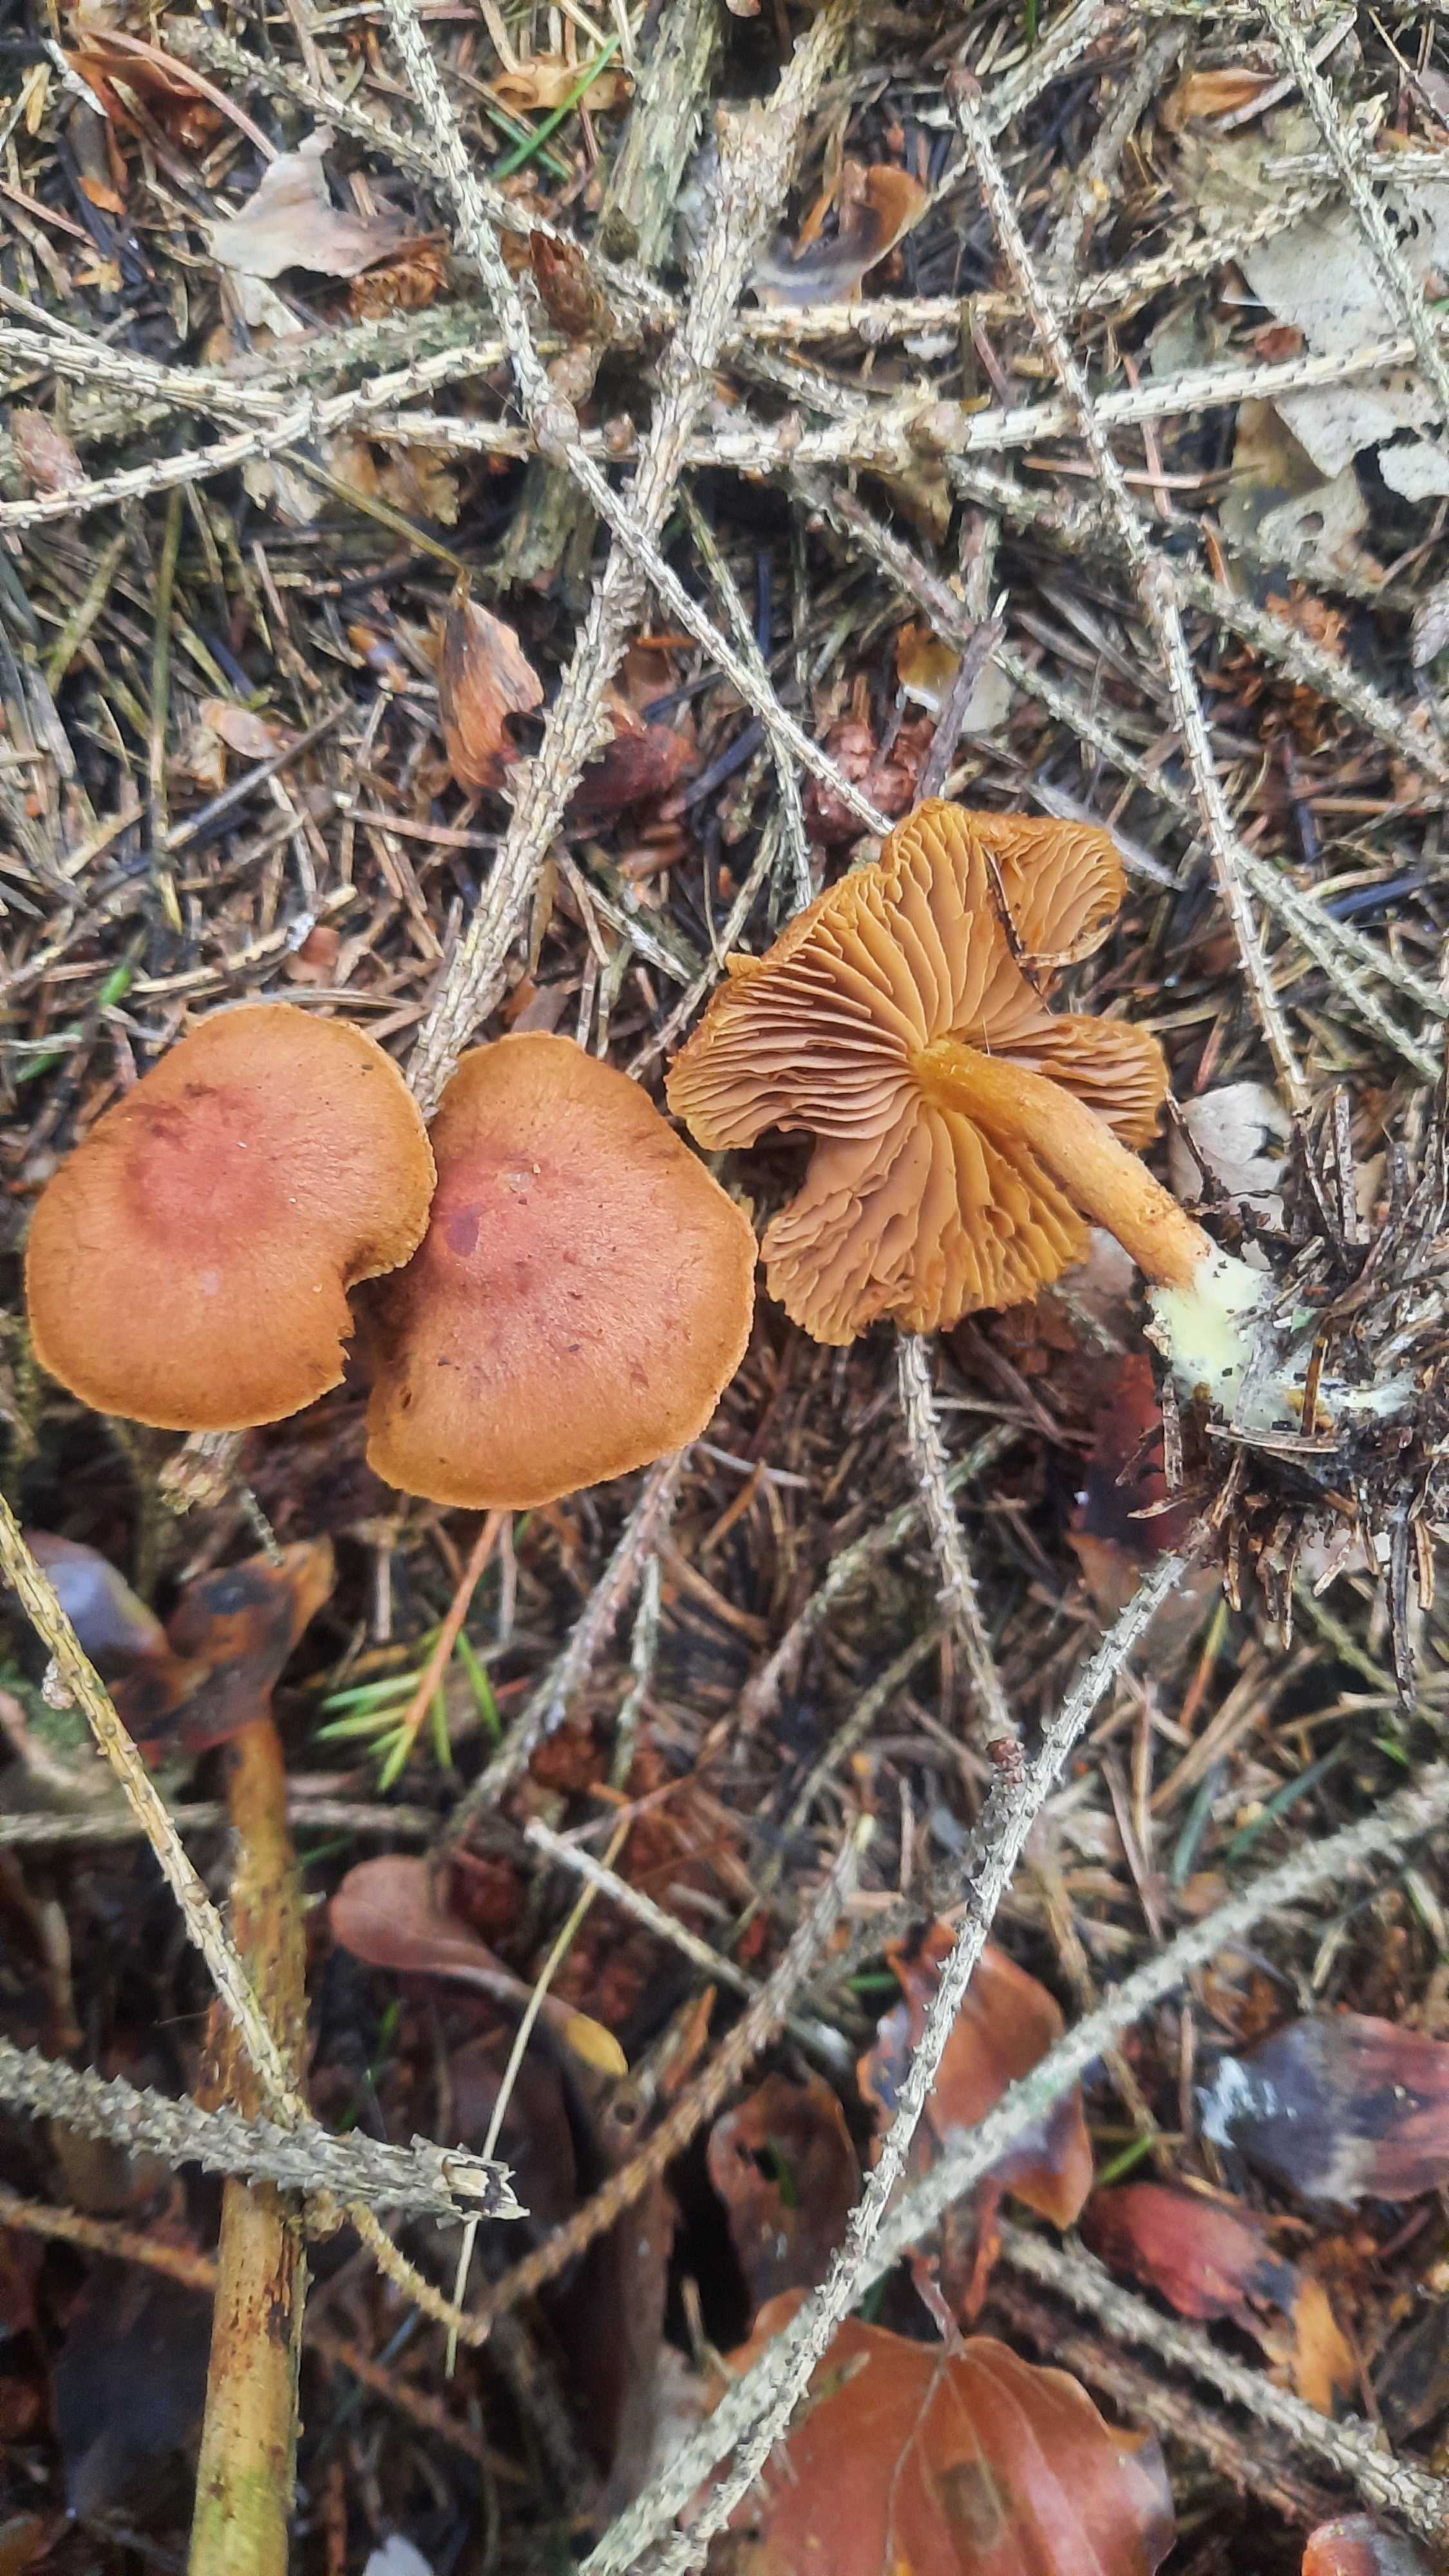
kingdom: Fungi
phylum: Basidiomycota
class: Agaricomycetes
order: Agaricales
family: Cortinariaceae
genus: Cortinarius
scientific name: Cortinarius
